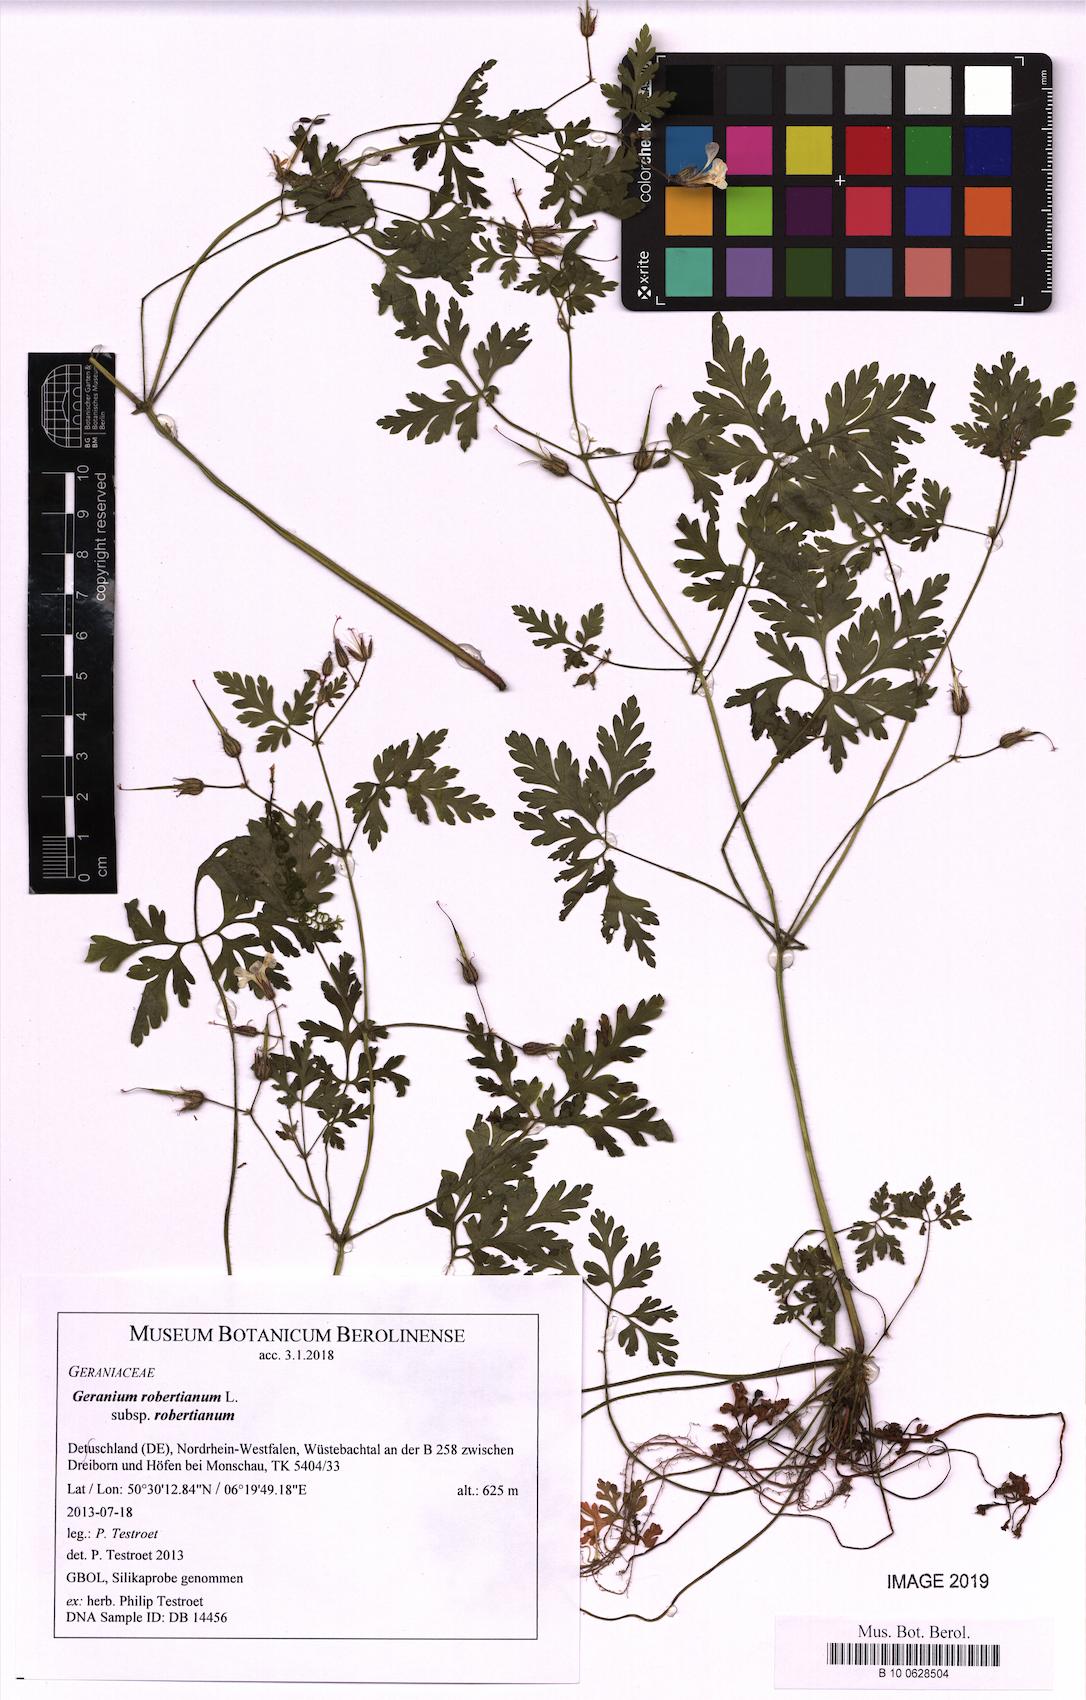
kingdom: Plantae
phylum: Tracheophyta
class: Magnoliopsida
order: Geraniales
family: Geraniaceae
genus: Geranium
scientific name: Geranium robertianum
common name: Herb-robert
